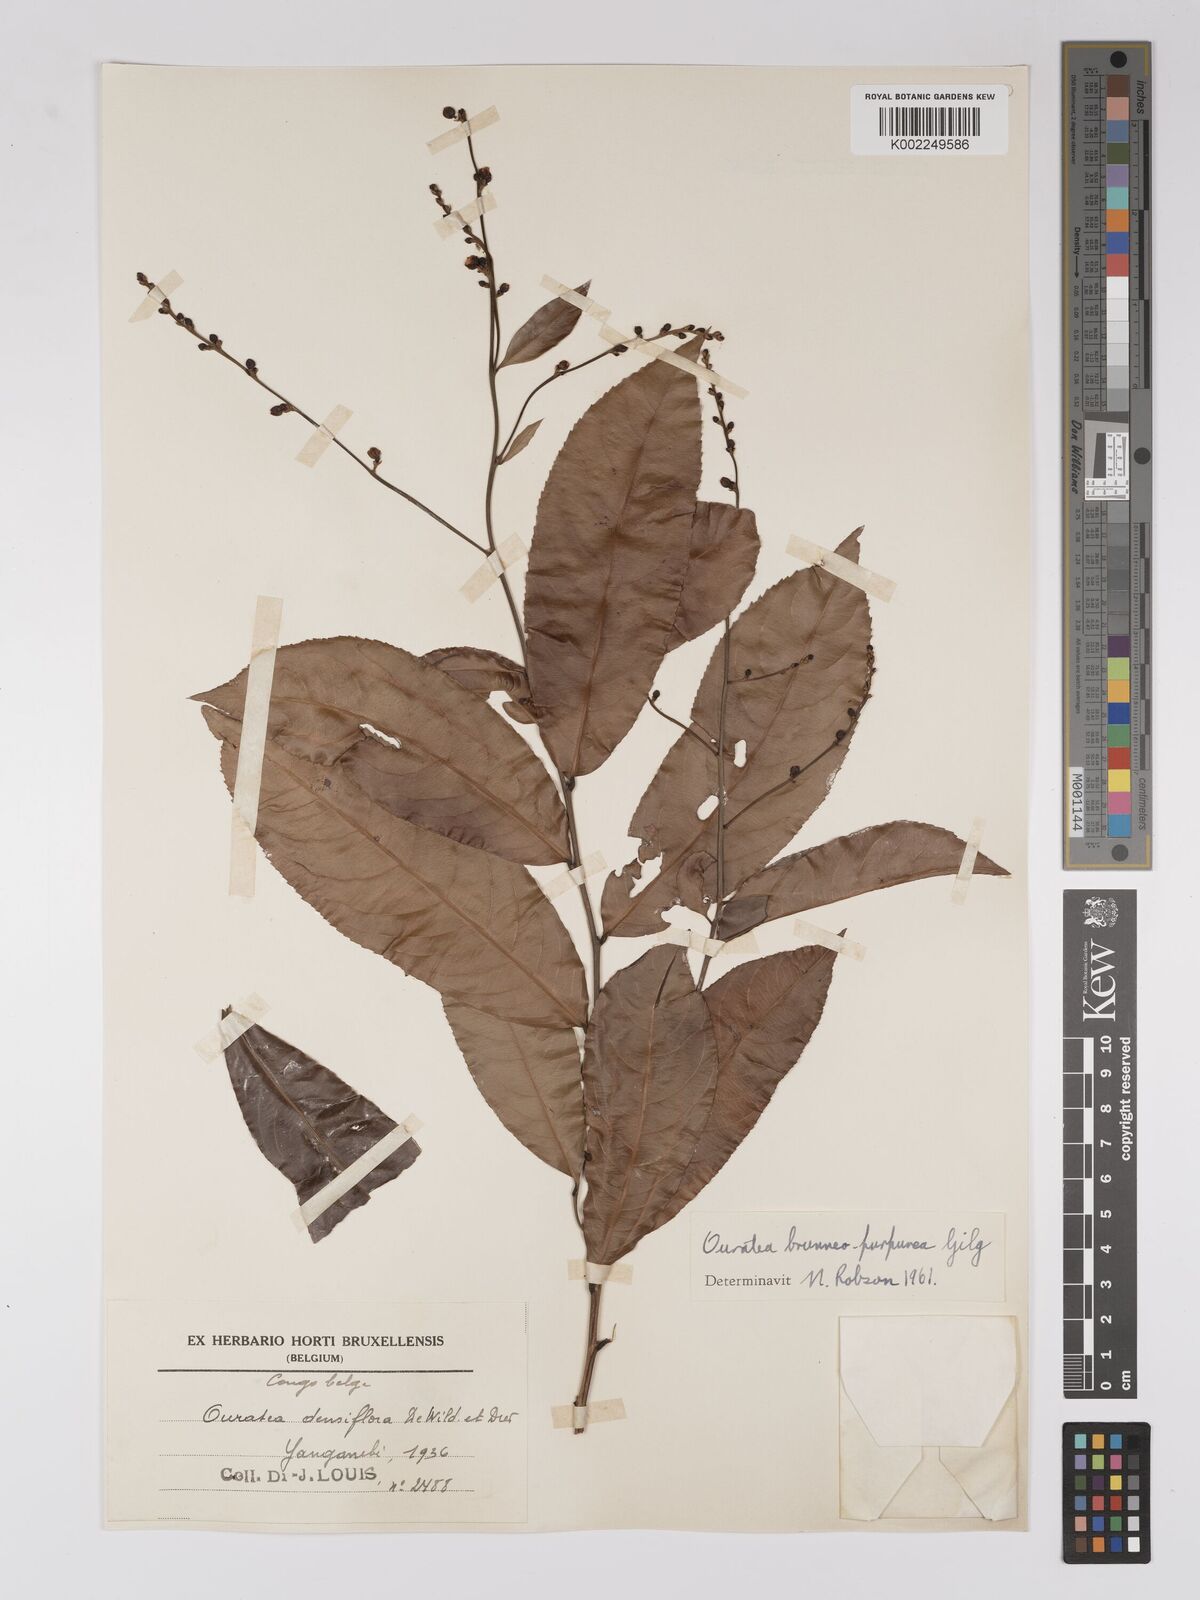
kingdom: Plantae
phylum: Tracheophyta
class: Magnoliopsida
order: Malpighiales
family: Ochnaceae
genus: Campylospermum
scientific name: Campylospermum reticulatum
